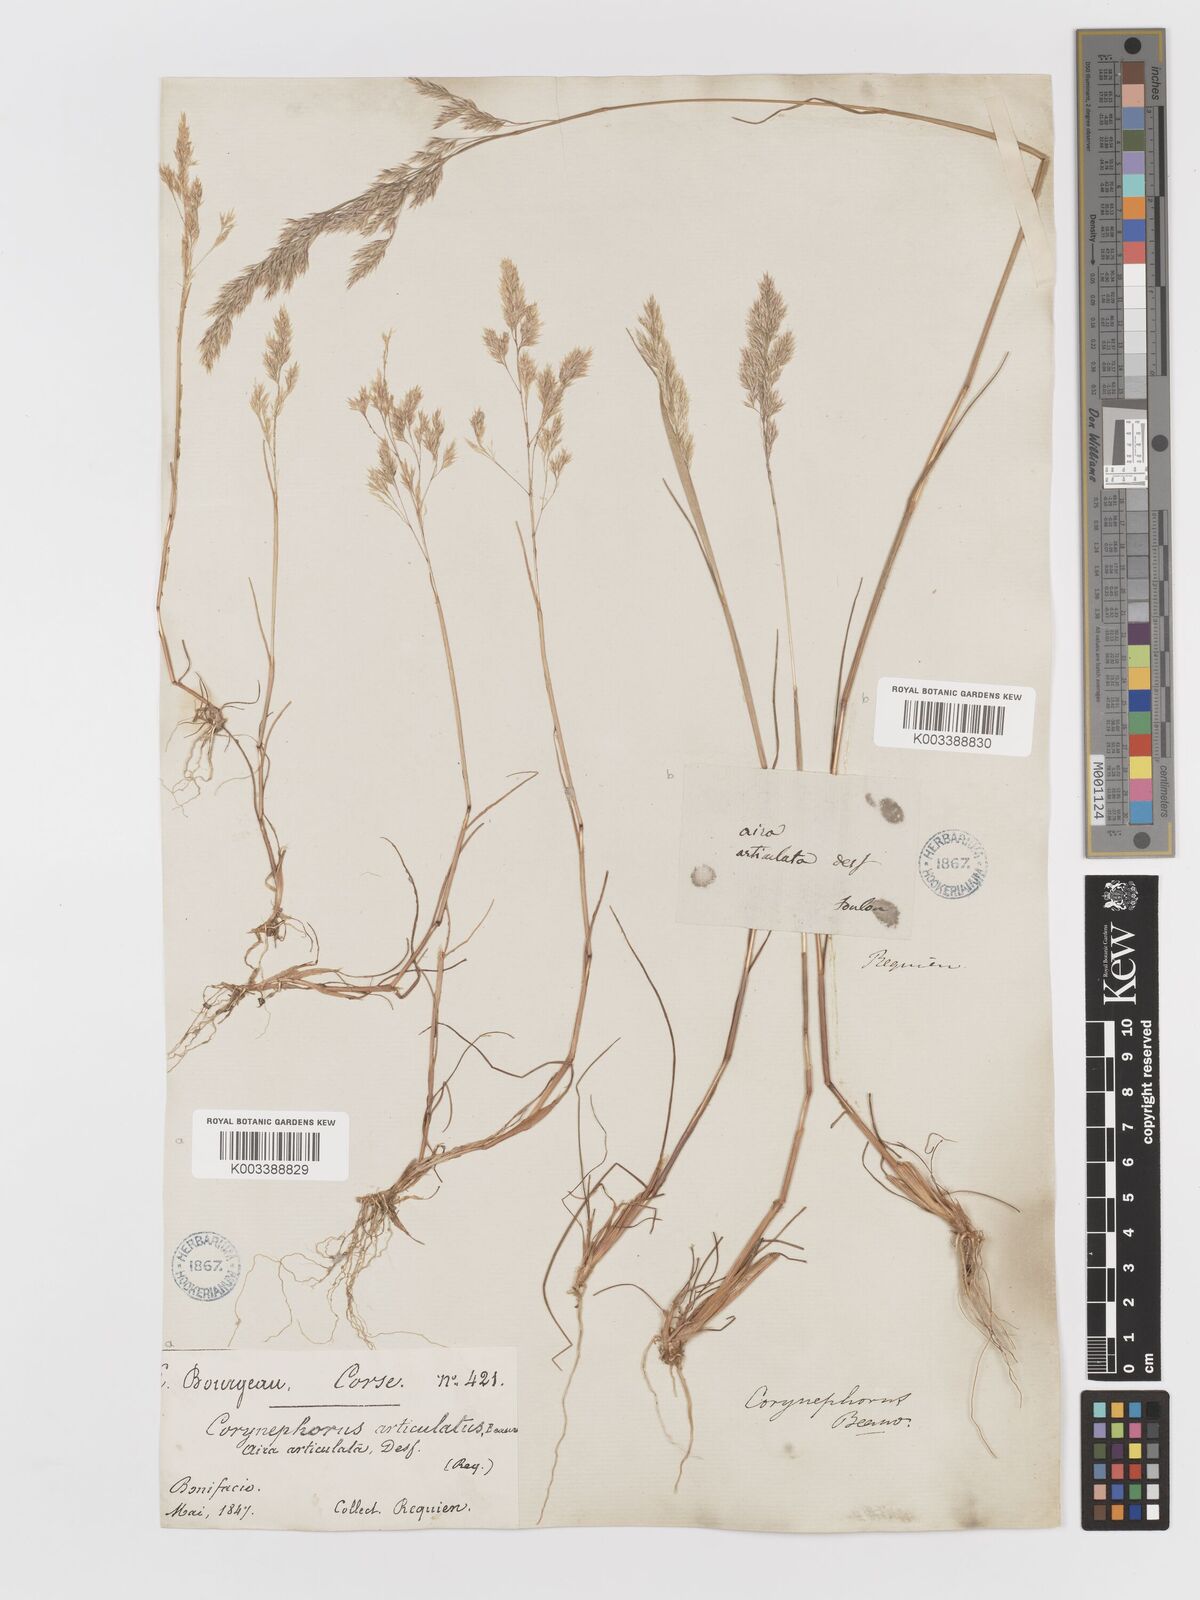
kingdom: Plantae
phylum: Tracheophyta
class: Liliopsida
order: Poales
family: Poaceae
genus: Corynephorus
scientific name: Corynephorus divaricatus
